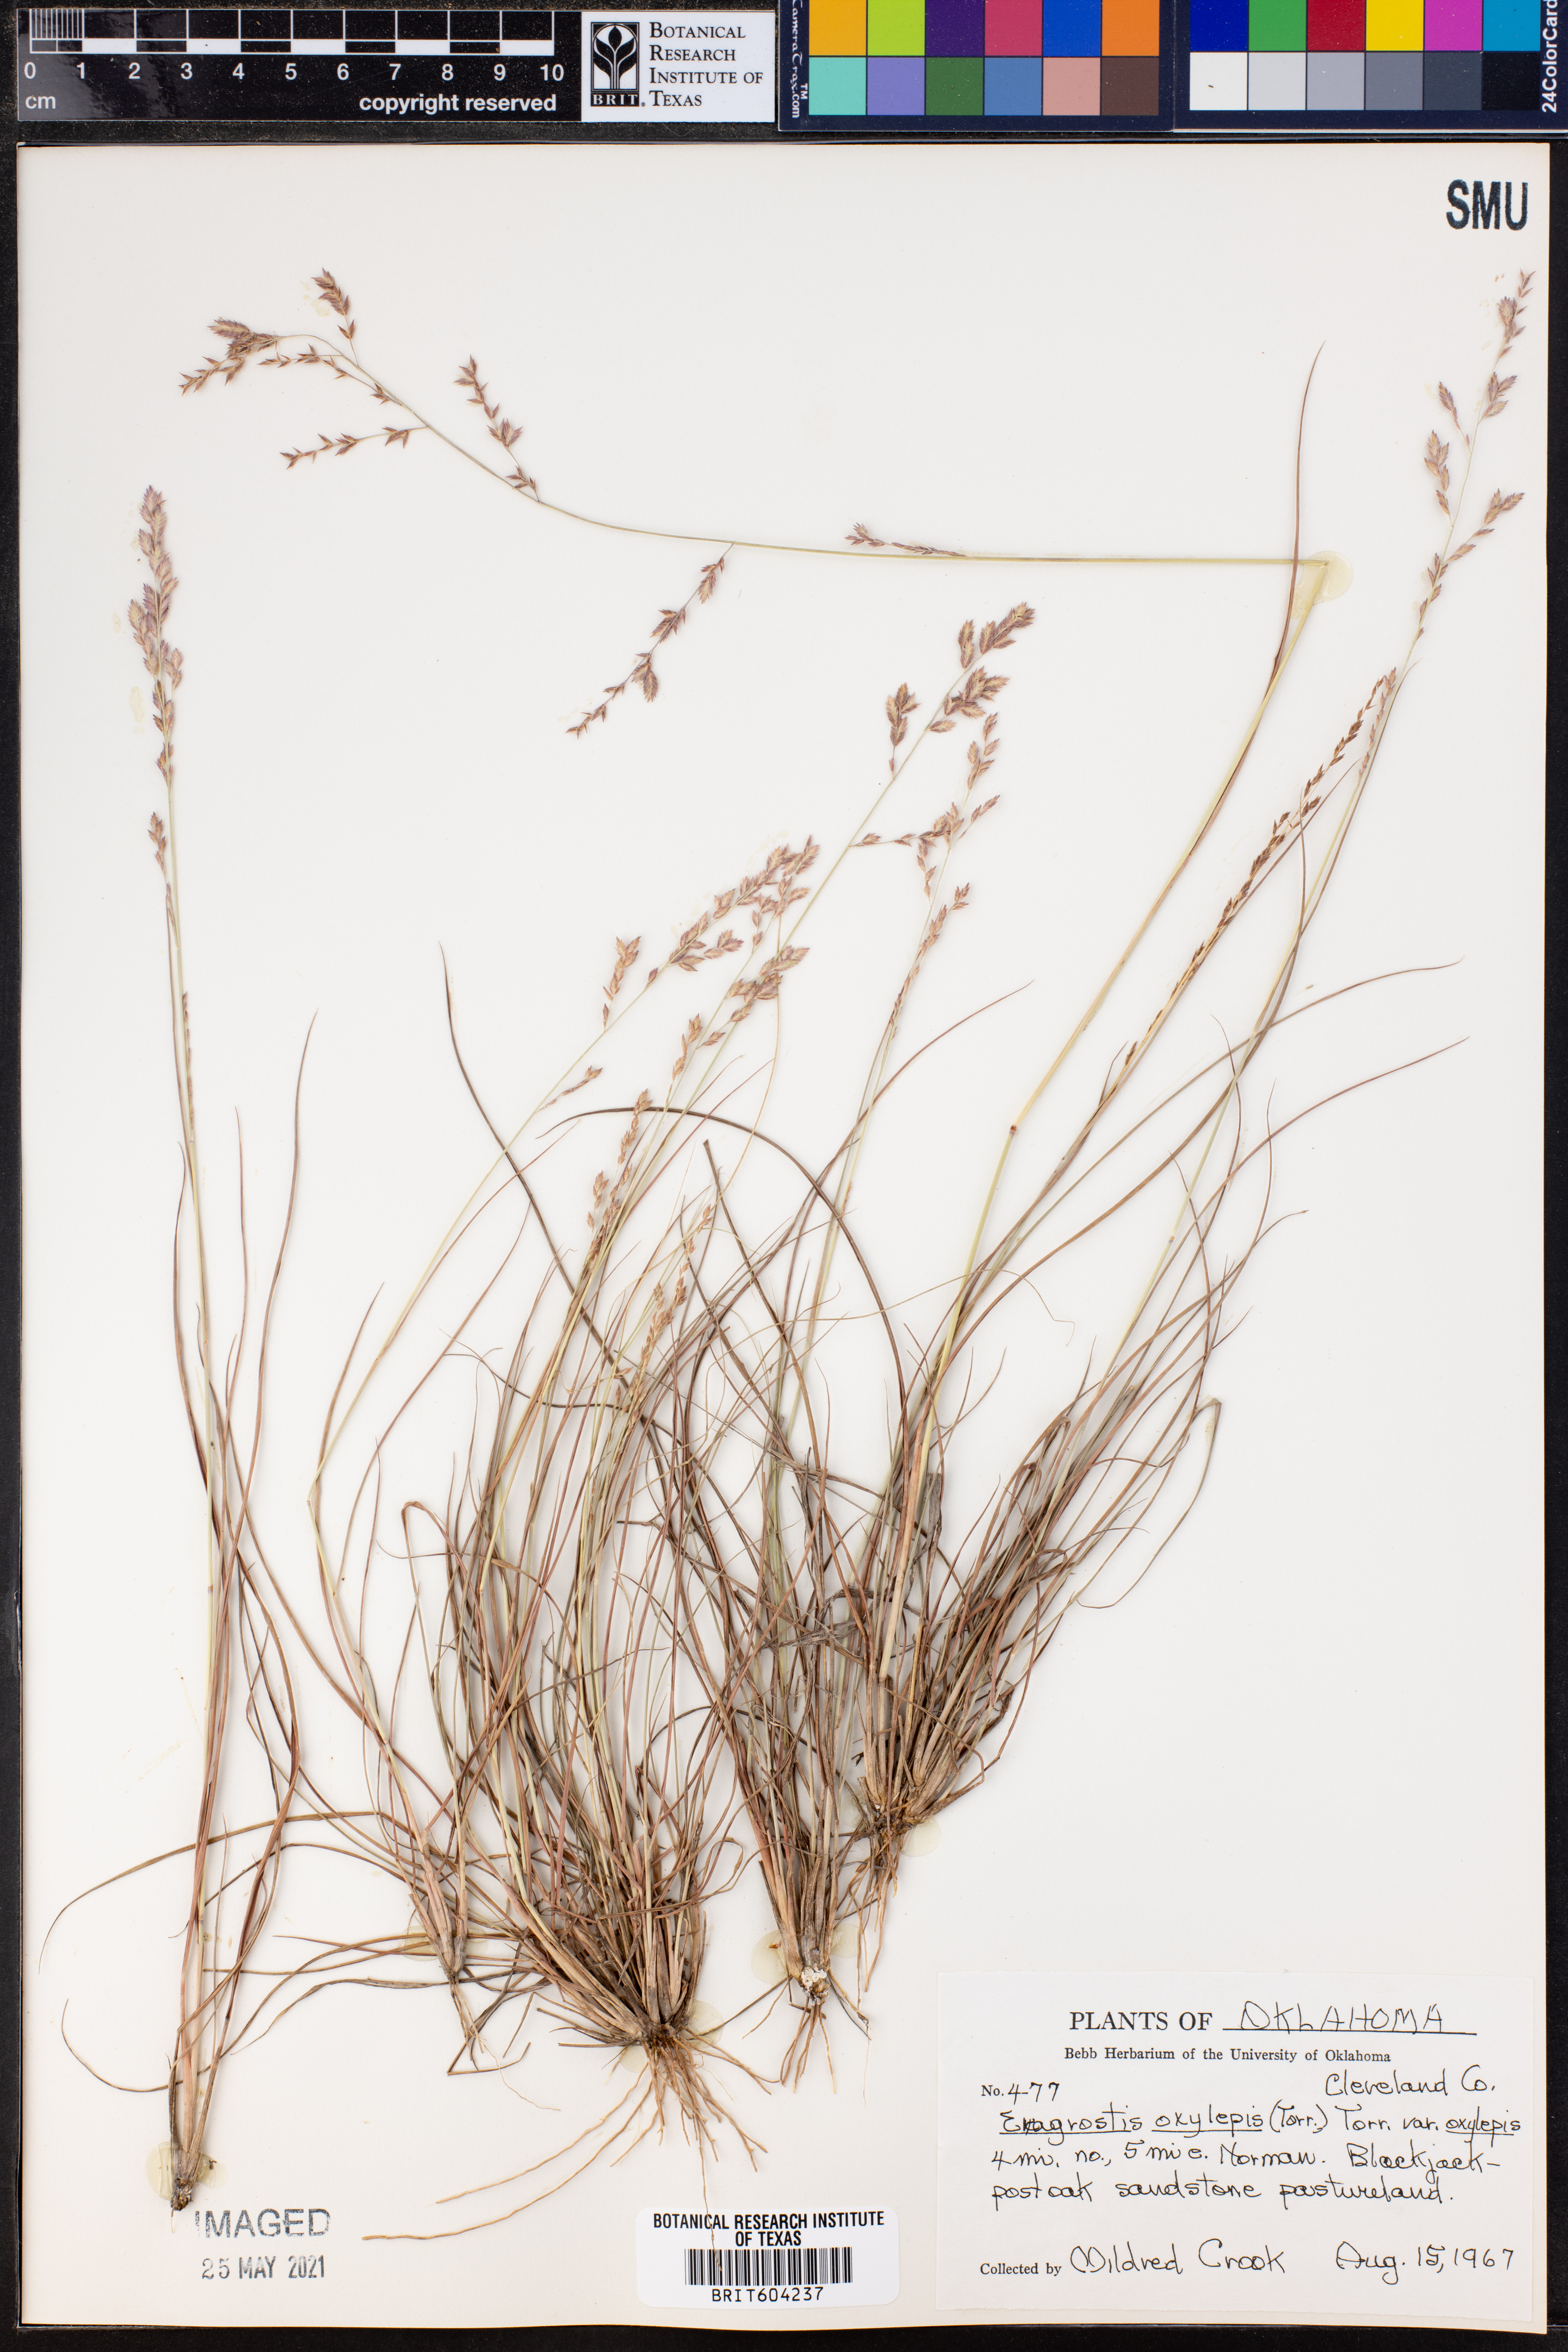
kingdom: Plantae
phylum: Tracheophyta
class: Liliopsida
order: Poales
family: Poaceae
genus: Eragrostis
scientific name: Eragrostis secundiflora
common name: Red love grass
